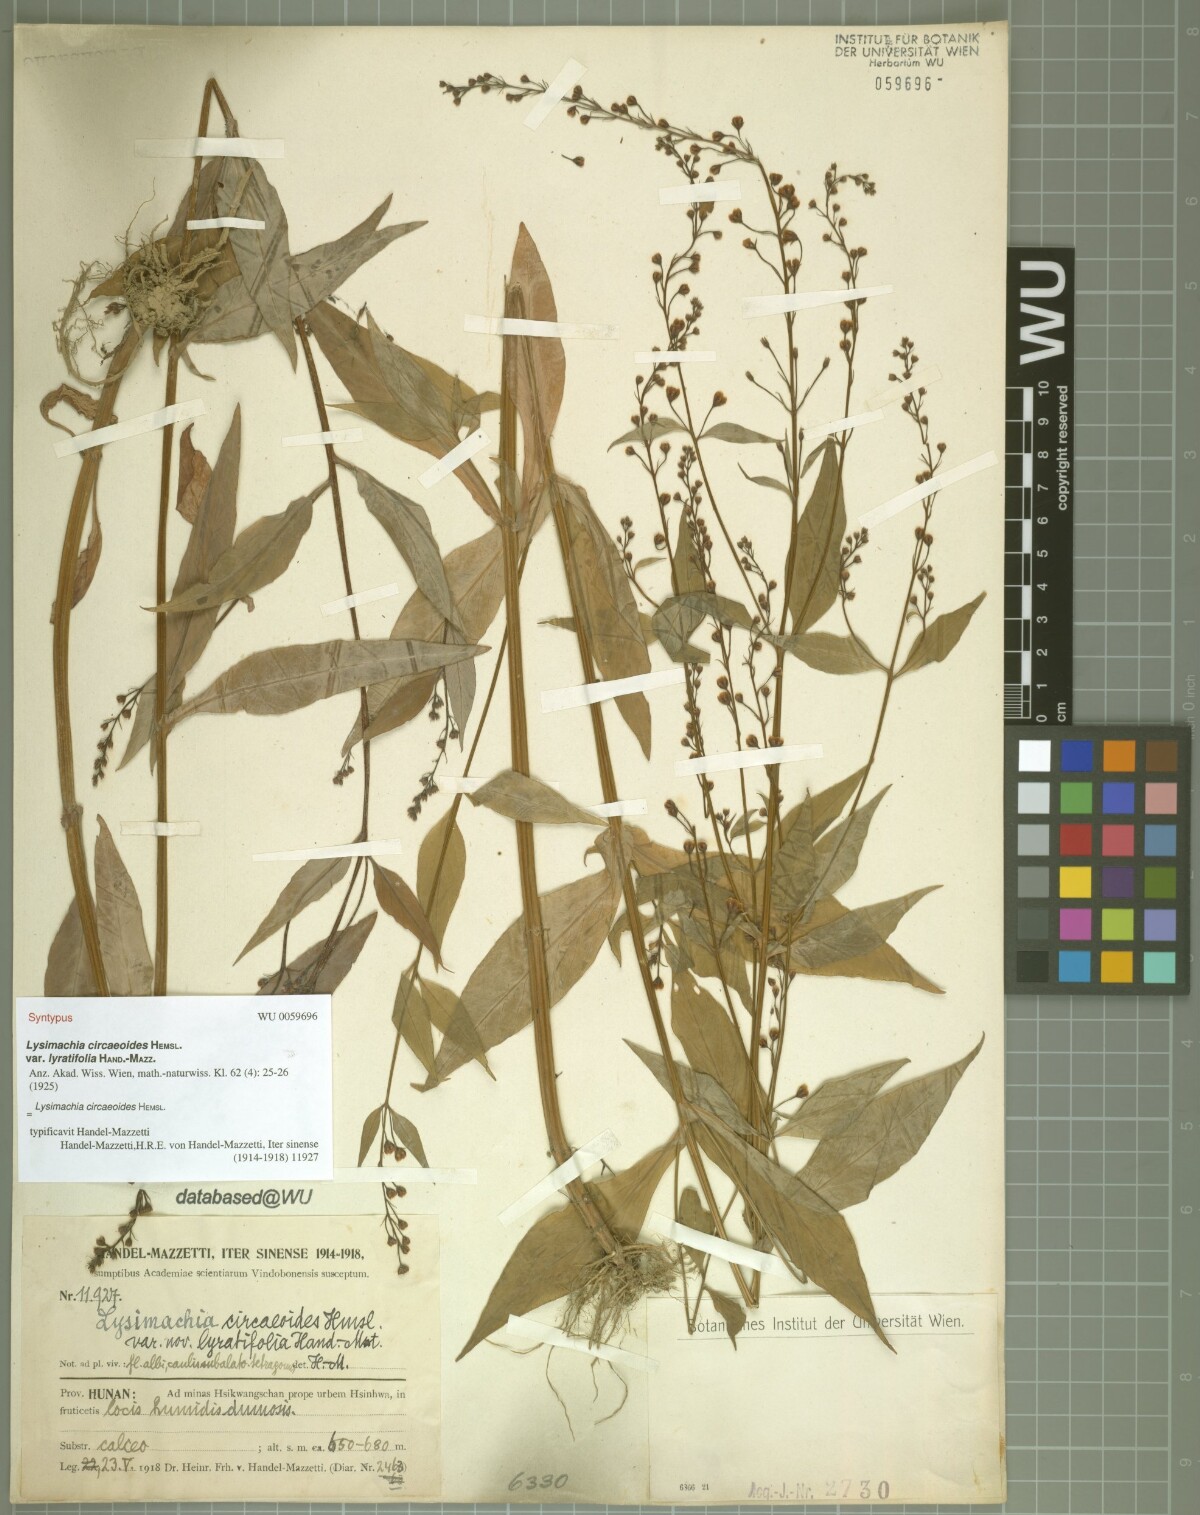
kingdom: Plantae
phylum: Tracheophyta
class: Magnoliopsida
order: Ericales
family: Primulaceae
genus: Lysimachia
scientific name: Lysimachia circaeoides
